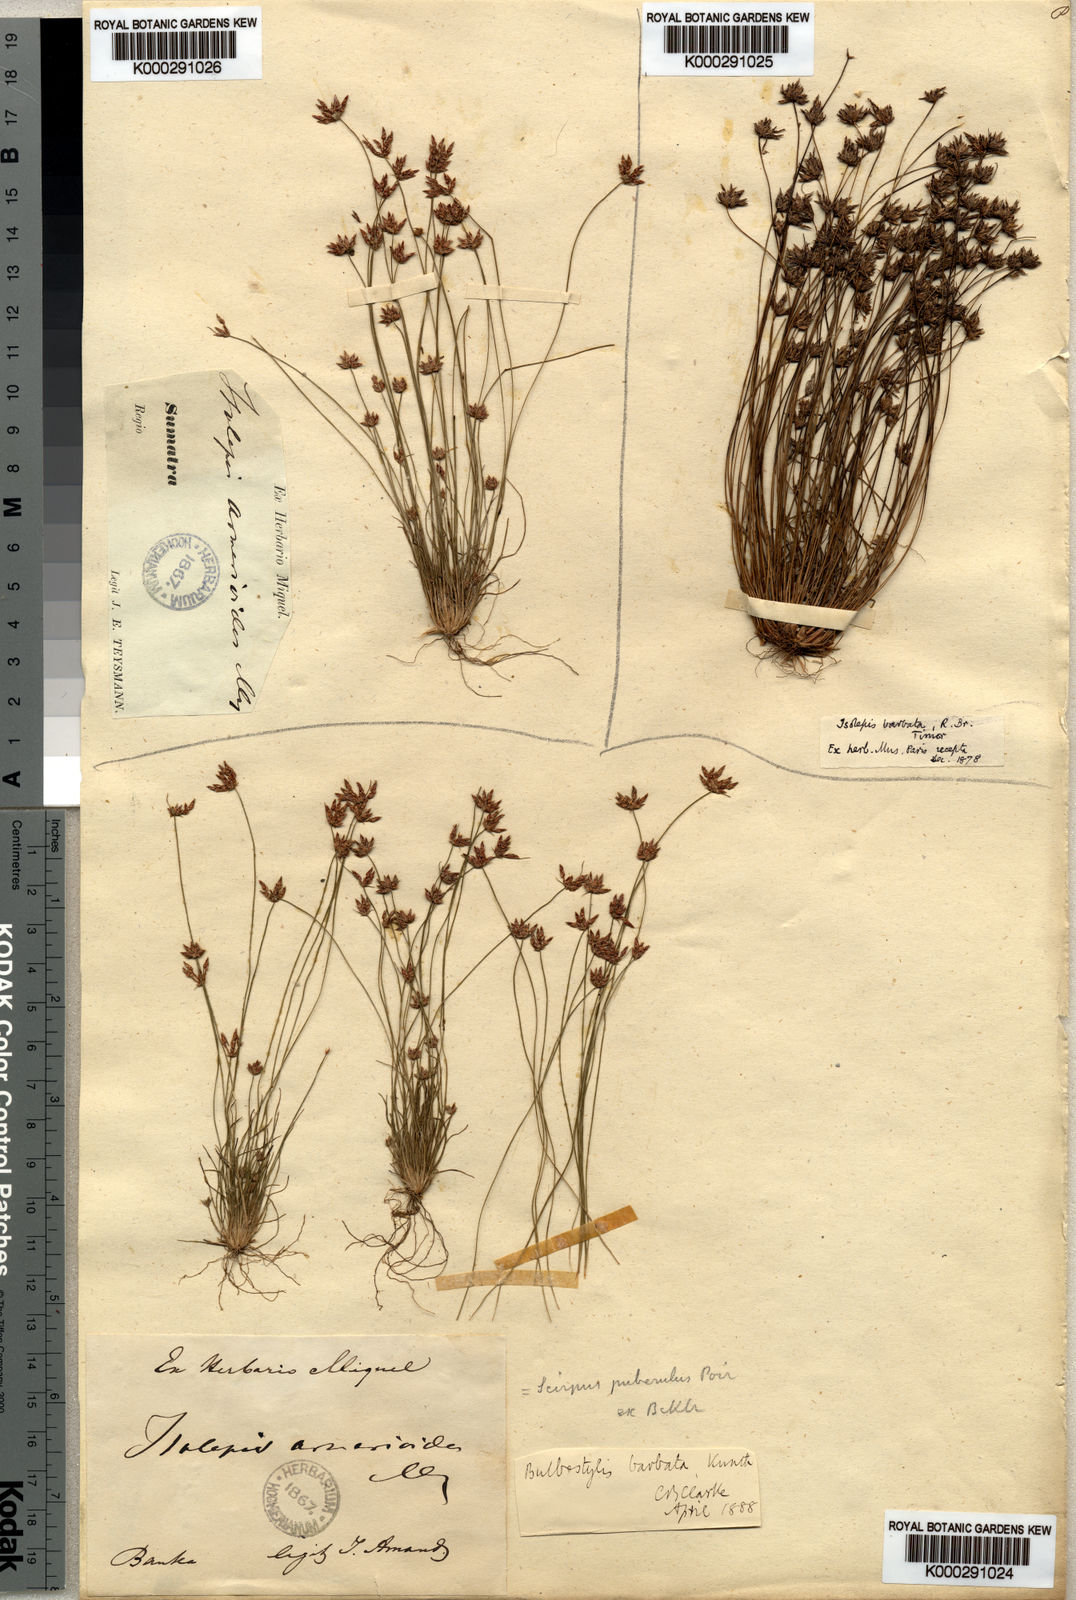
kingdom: Plantae
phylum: Tracheophyta
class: Liliopsida
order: Poales
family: Cyperaceae
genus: Bulbostylis
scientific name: Bulbostylis barbata
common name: Watergrass
